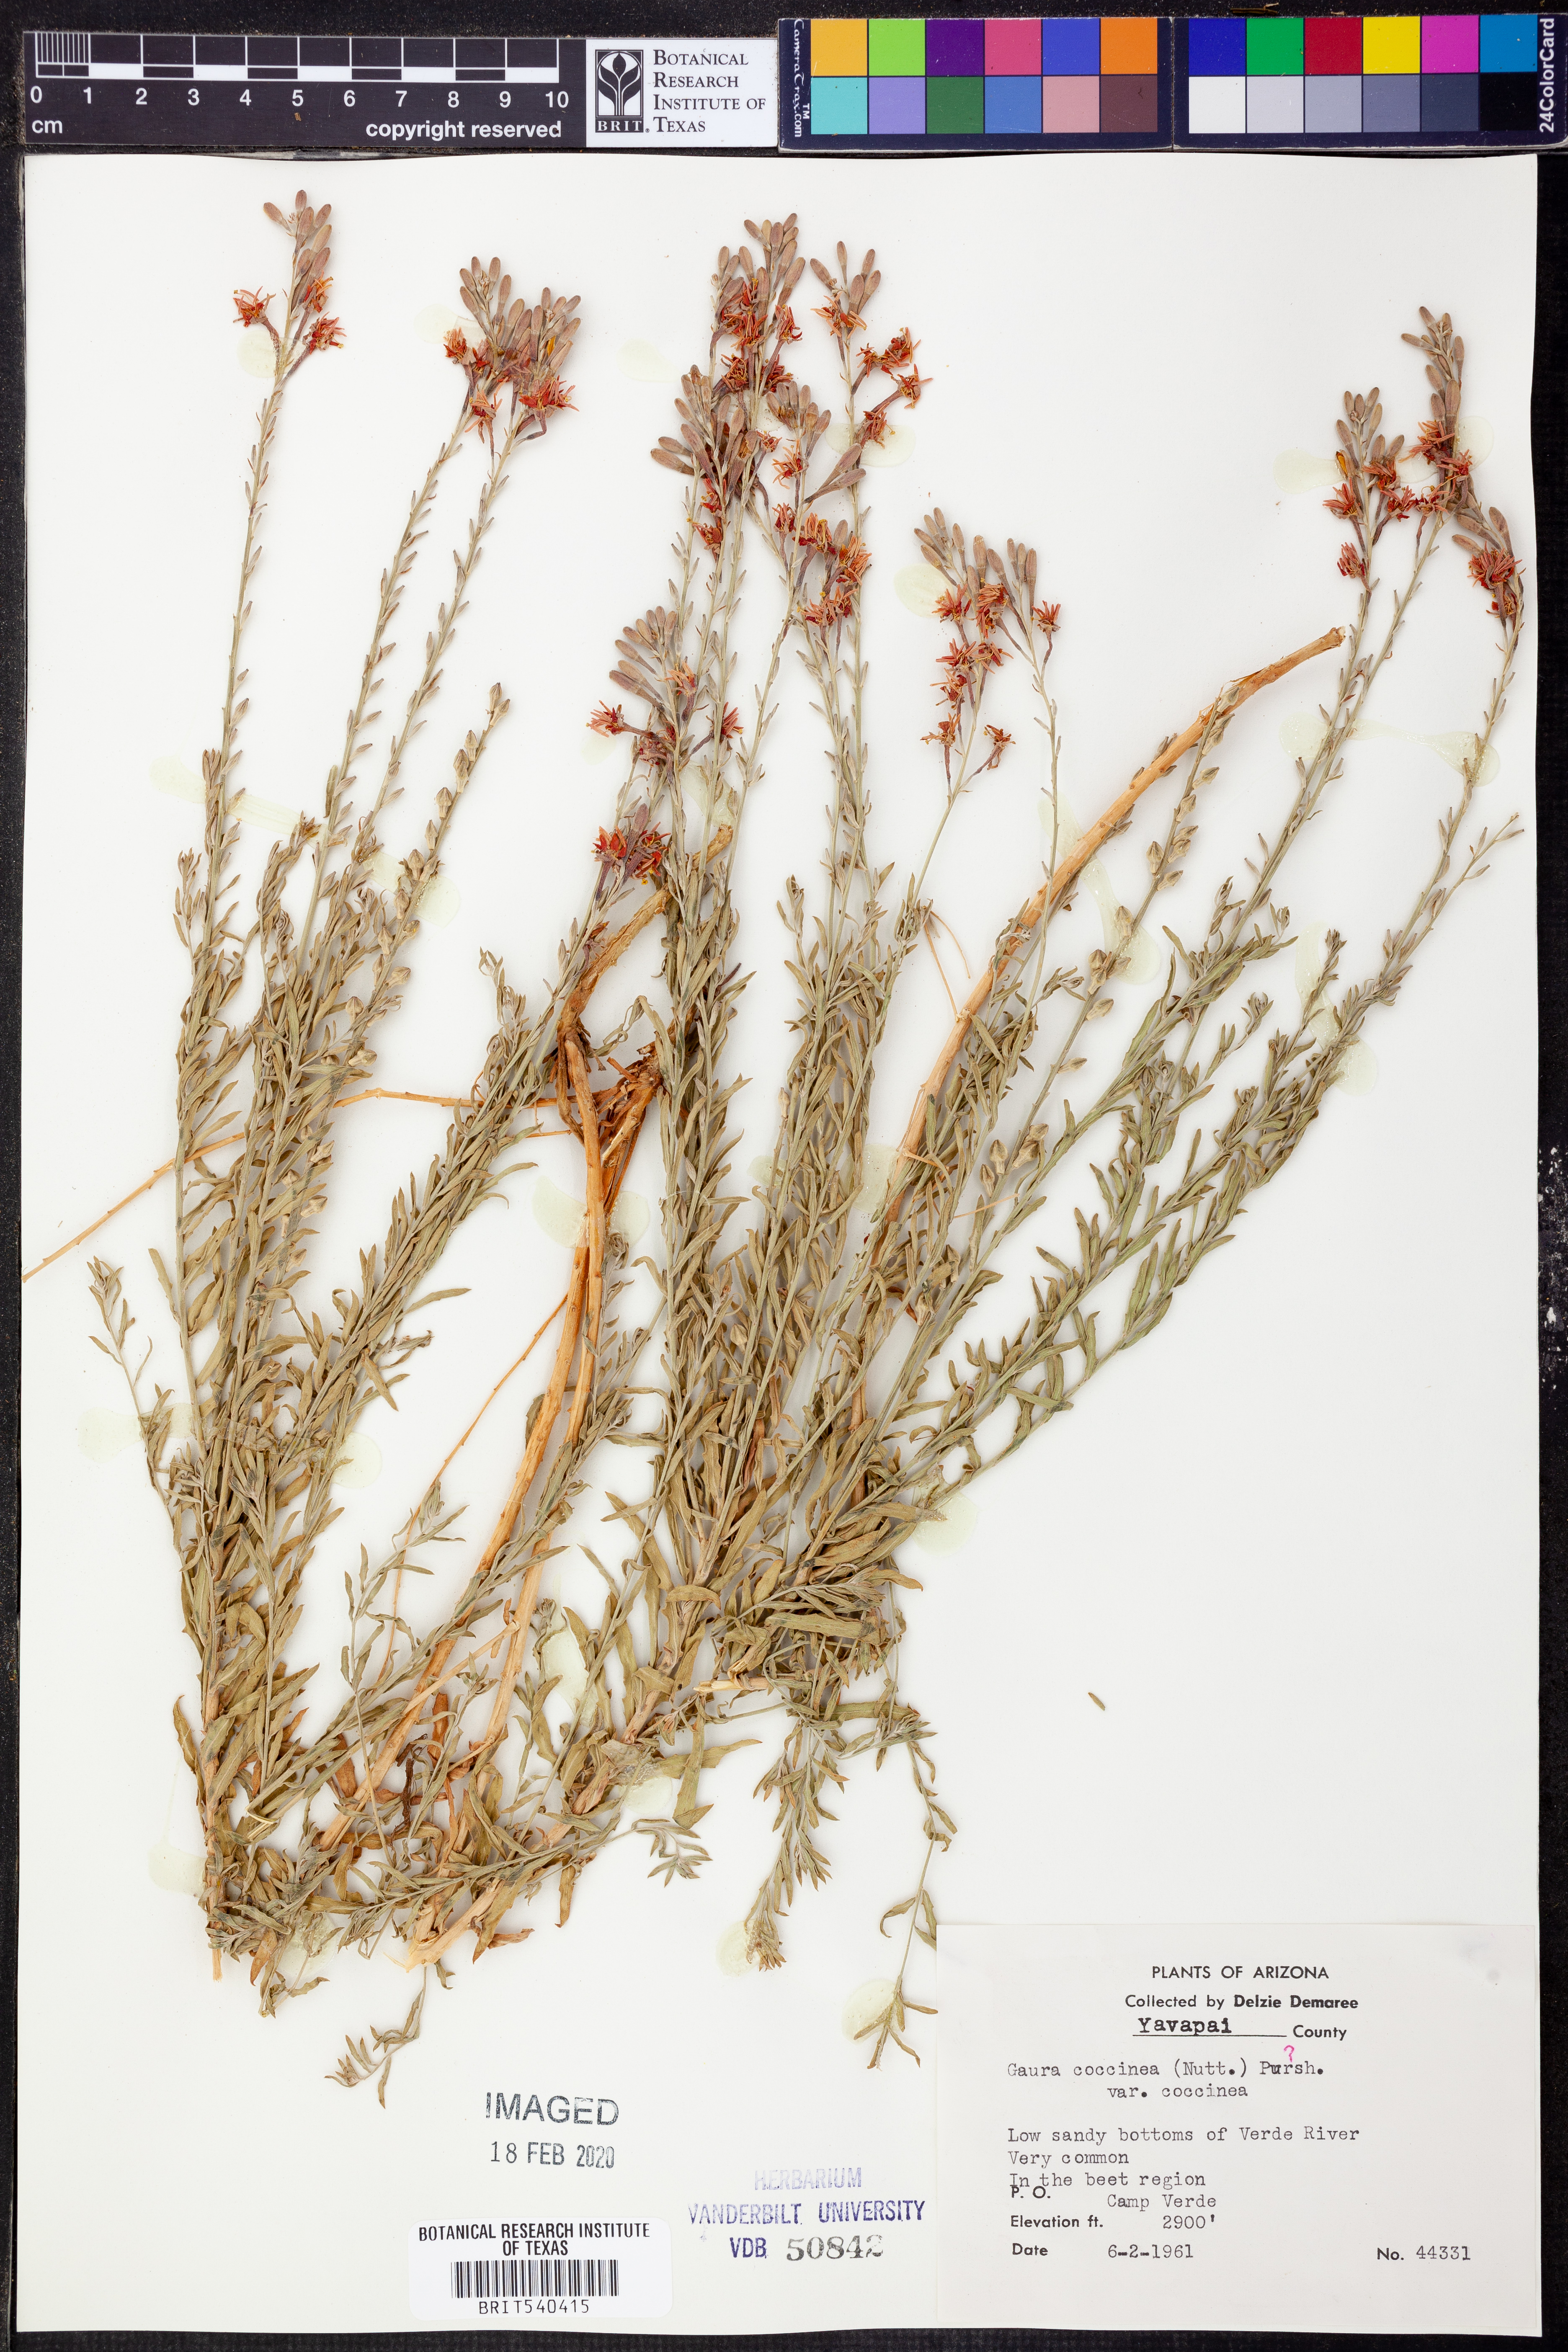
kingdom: Plantae
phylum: Tracheophyta
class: Magnoliopsida
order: Myrtales
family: Onagraceae
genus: Oenothera
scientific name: Oenothera suffrutescens
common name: Scarlet beeblossom
